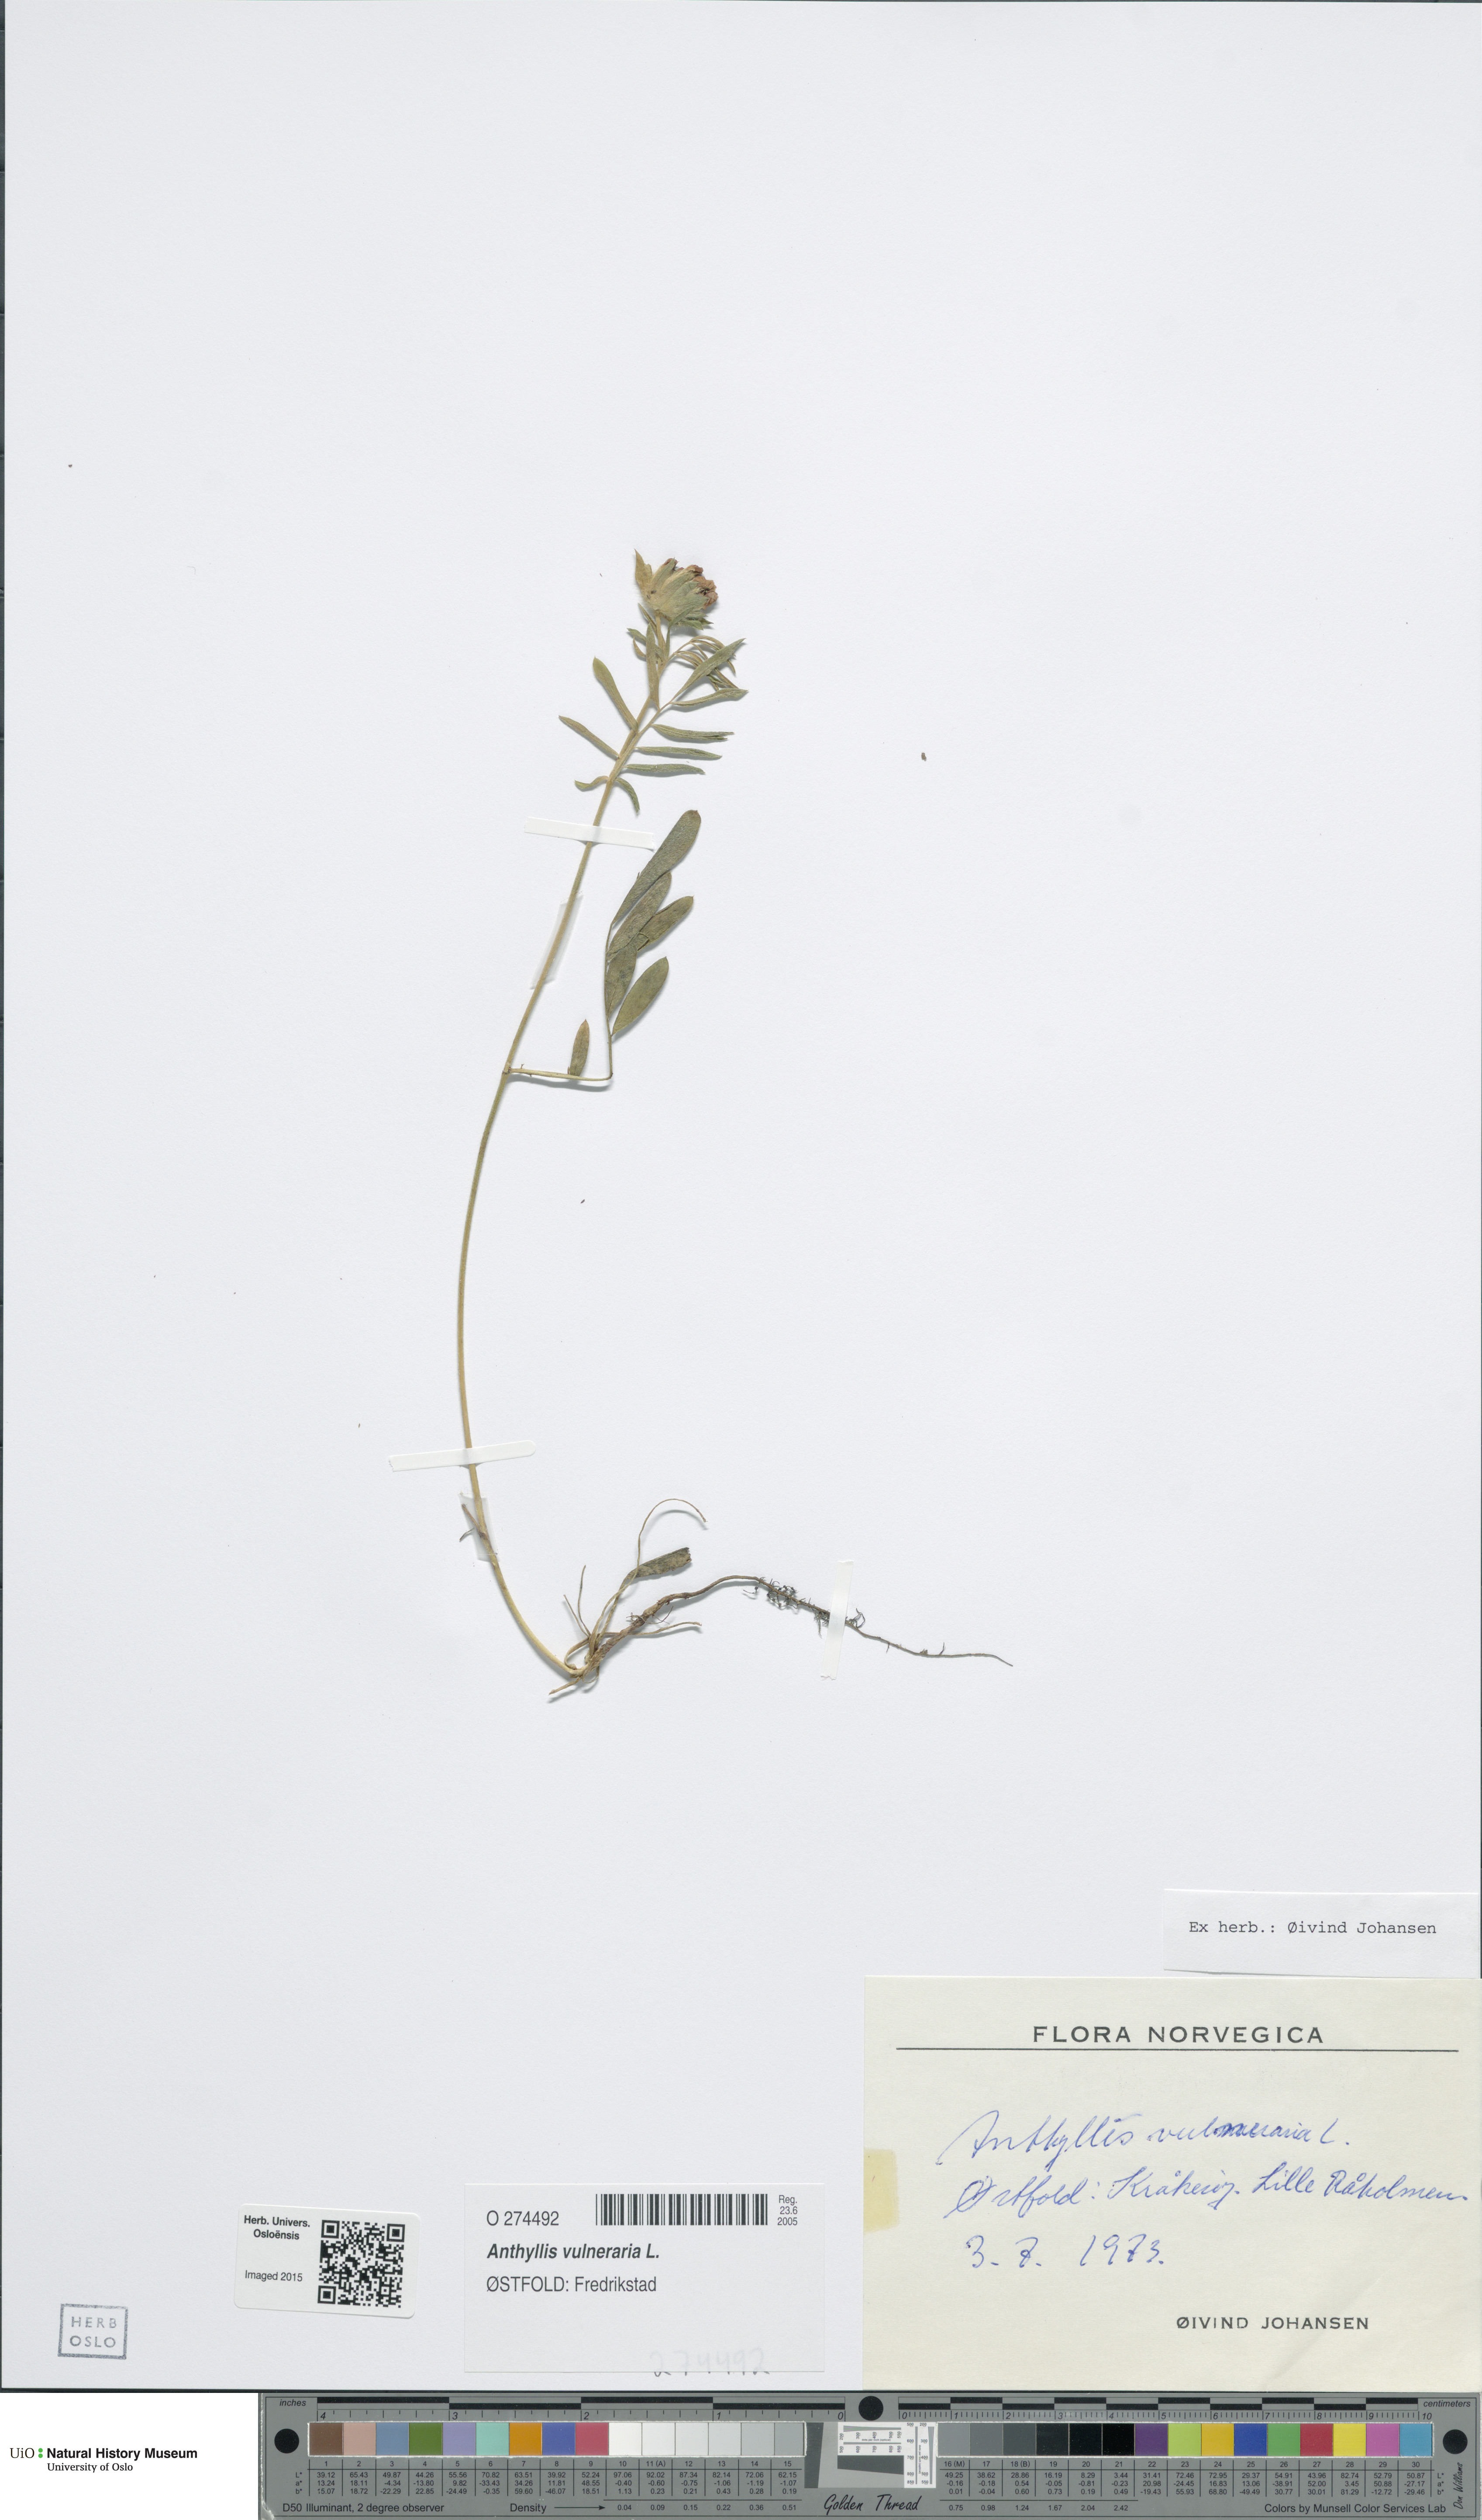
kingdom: Plantae
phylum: Tracheophyta
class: Magnoliopsida
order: Fabales
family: Fabaceae
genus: Anthyllis
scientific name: Anthyllis vulneraria
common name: Kidney vetch
